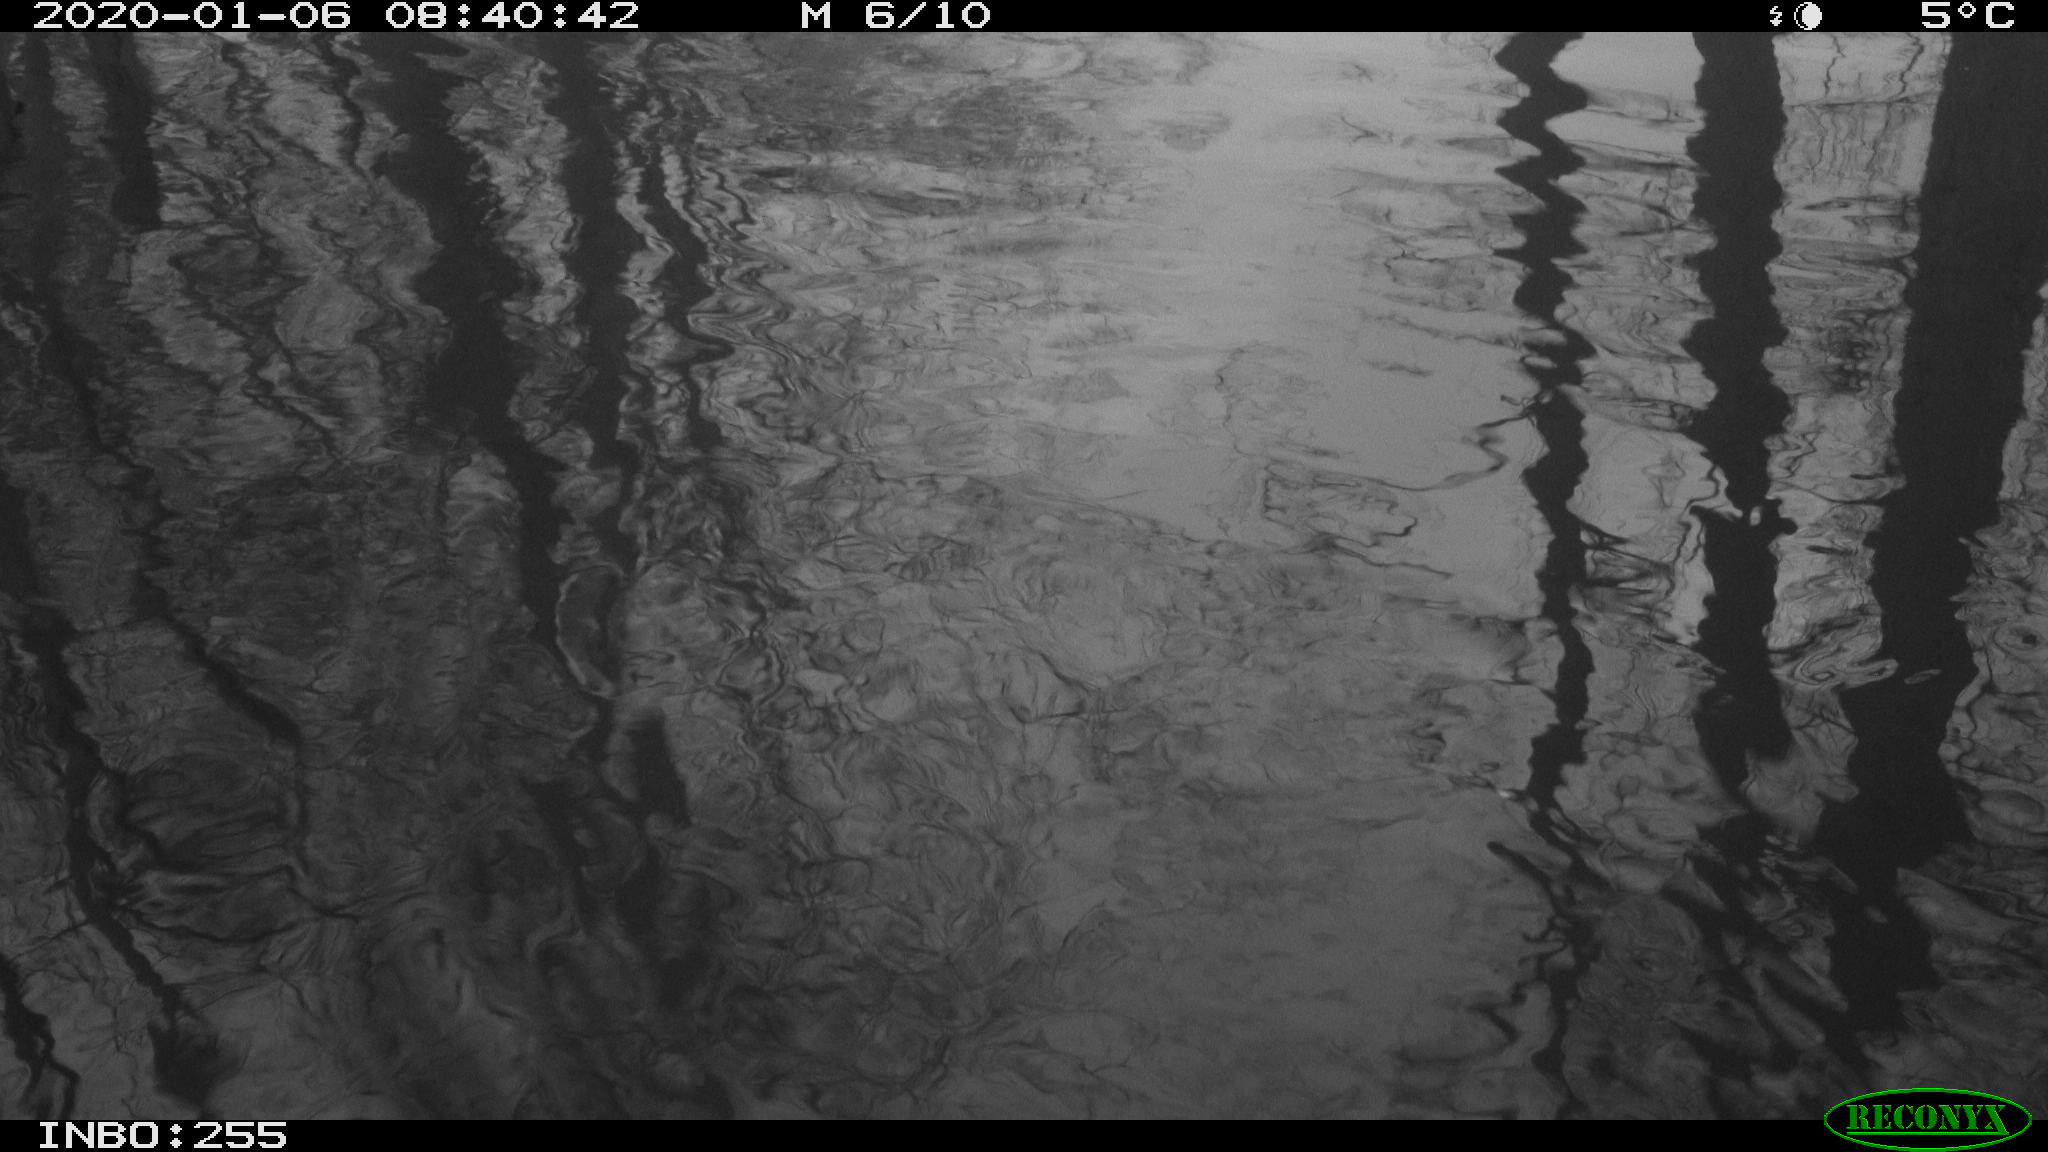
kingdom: Animalia
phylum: Chordata
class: Aves
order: Gruiformes
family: Rallidae
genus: Gallinula
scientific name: Gallinula chloropus
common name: Common moorhen
